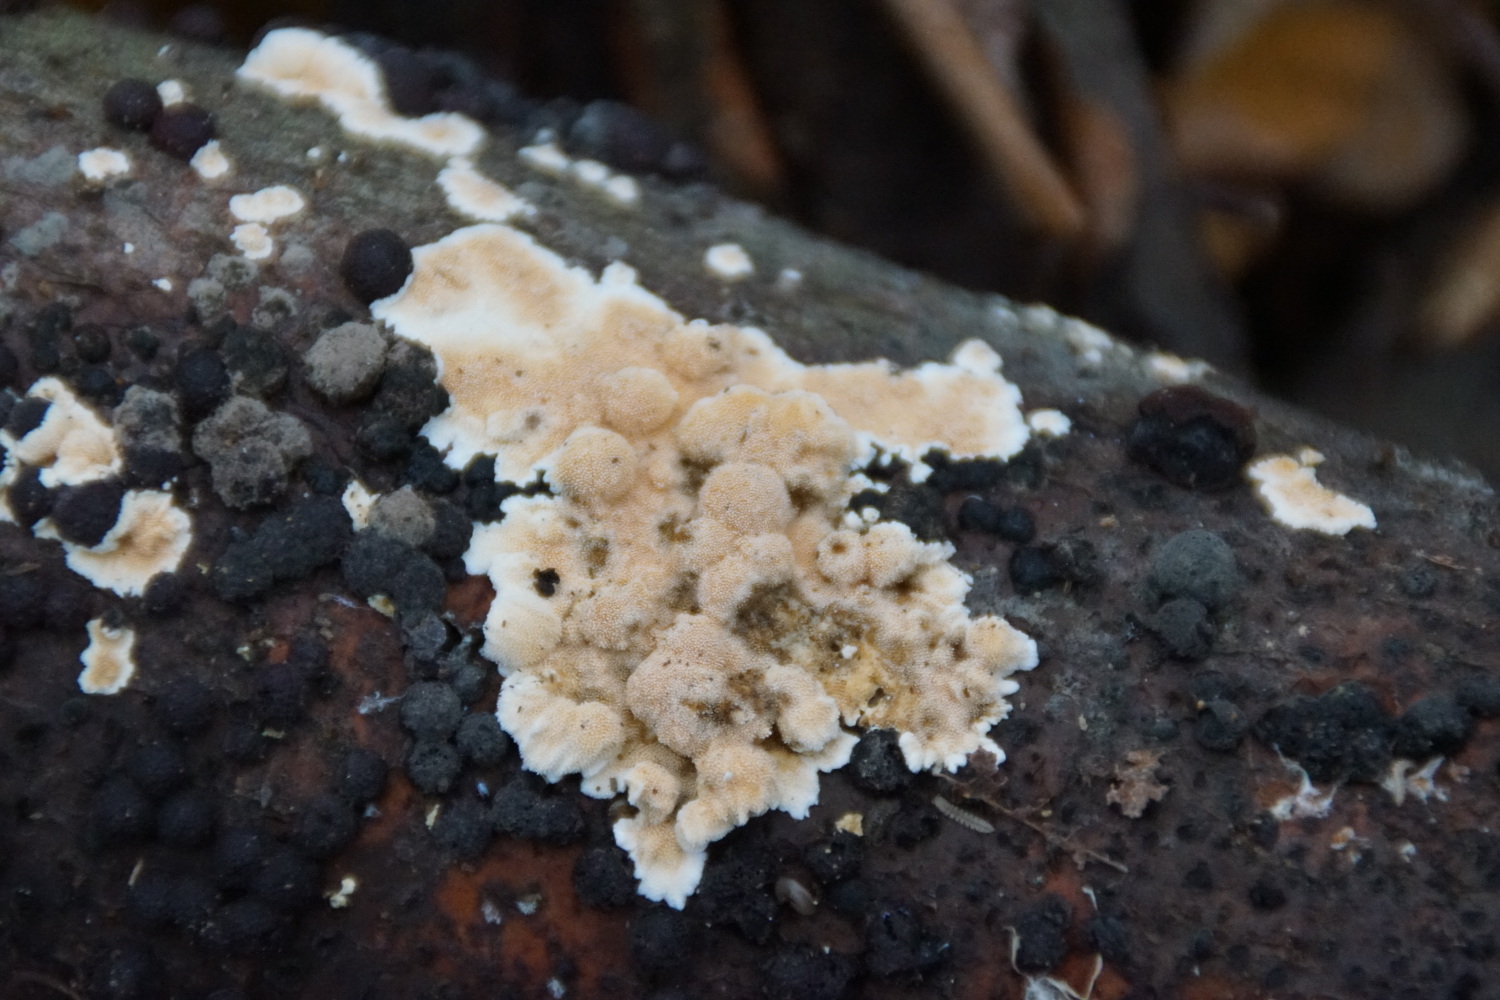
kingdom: Fungi
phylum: Basidiomycota
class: Agaricomycetes
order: Polyporales
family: Steccherinaceae
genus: Steccherinum
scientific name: Steccherinum ochraceum
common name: almindelig skønpig
